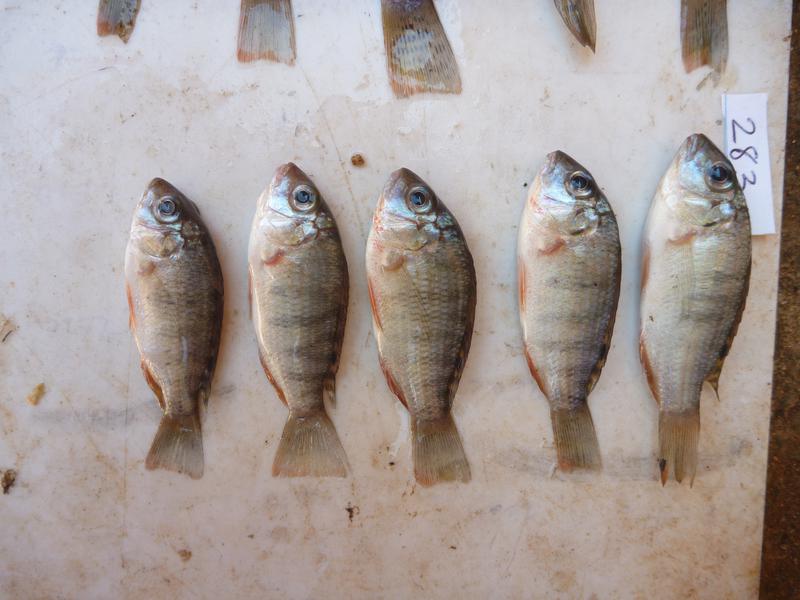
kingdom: Animalia
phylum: Chordata
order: Perciformes
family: Cichlidae
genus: Coptodon
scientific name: Coptodon rendalli
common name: Redbreast tilapia
